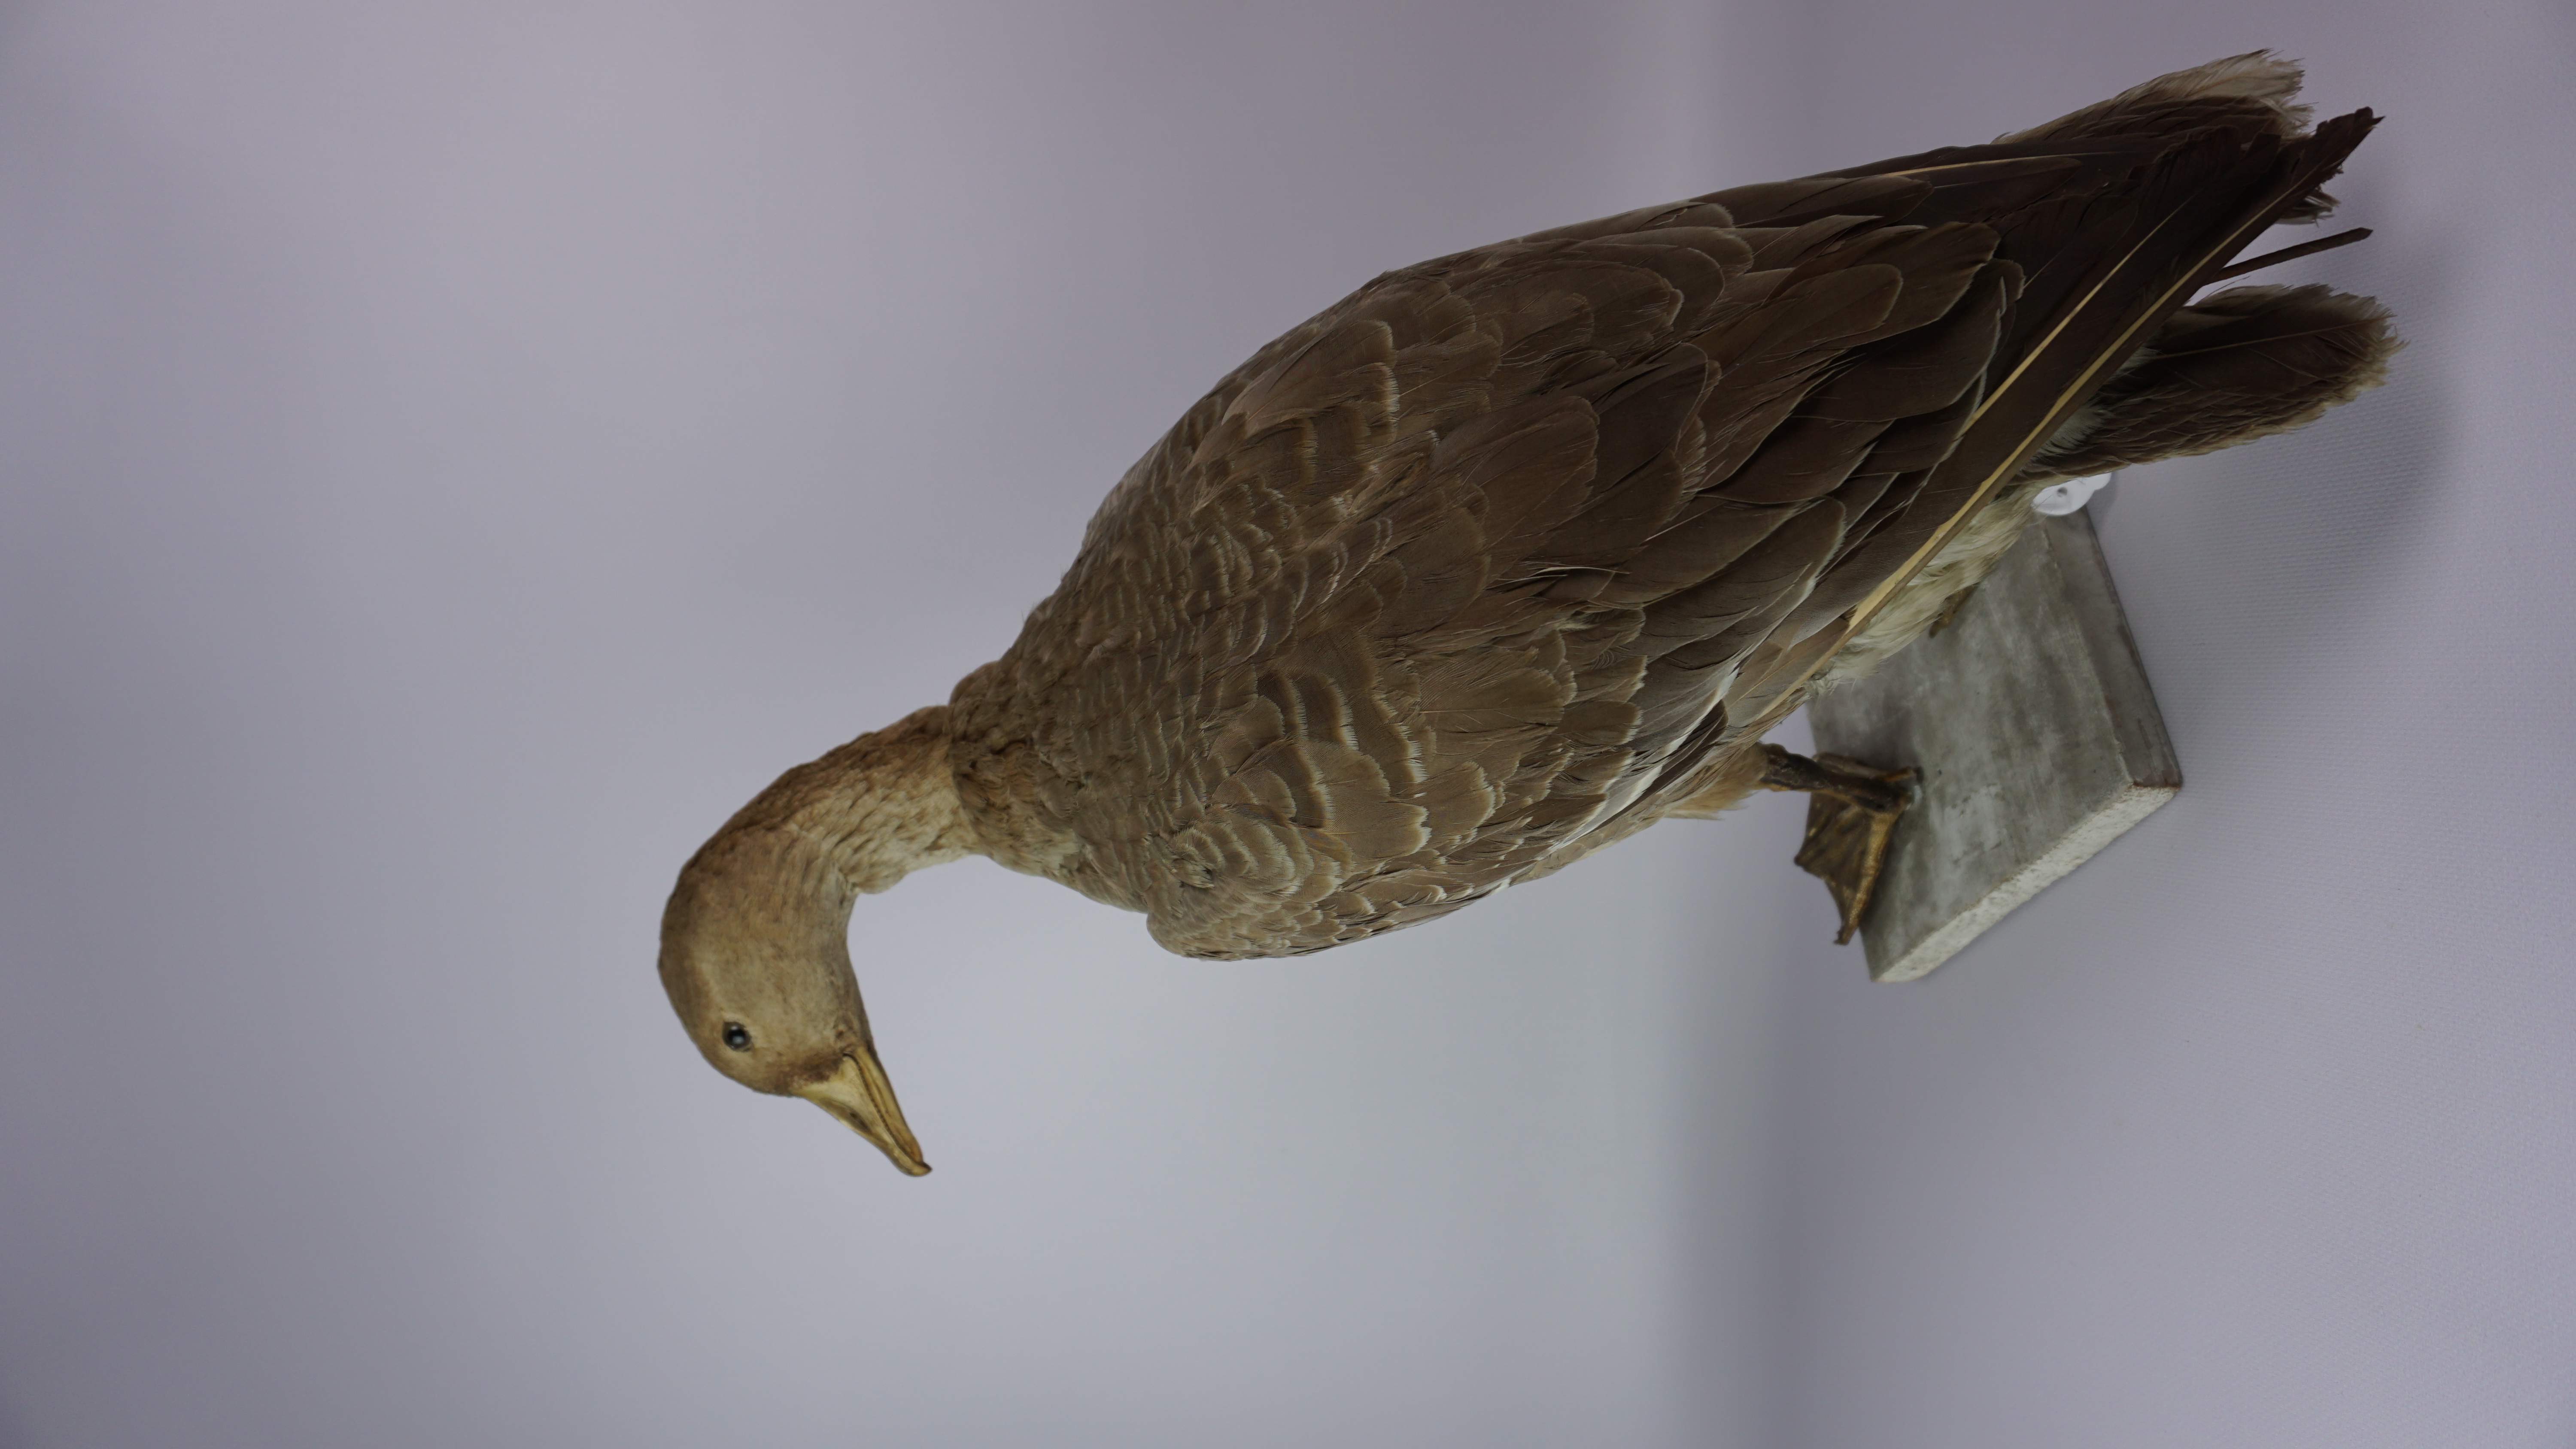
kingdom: Animalia
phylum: Chordata
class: Aves
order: Anseriformes
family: Anatidae
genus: Anser
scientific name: Anser albifrons
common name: Greater white-fronted goose
